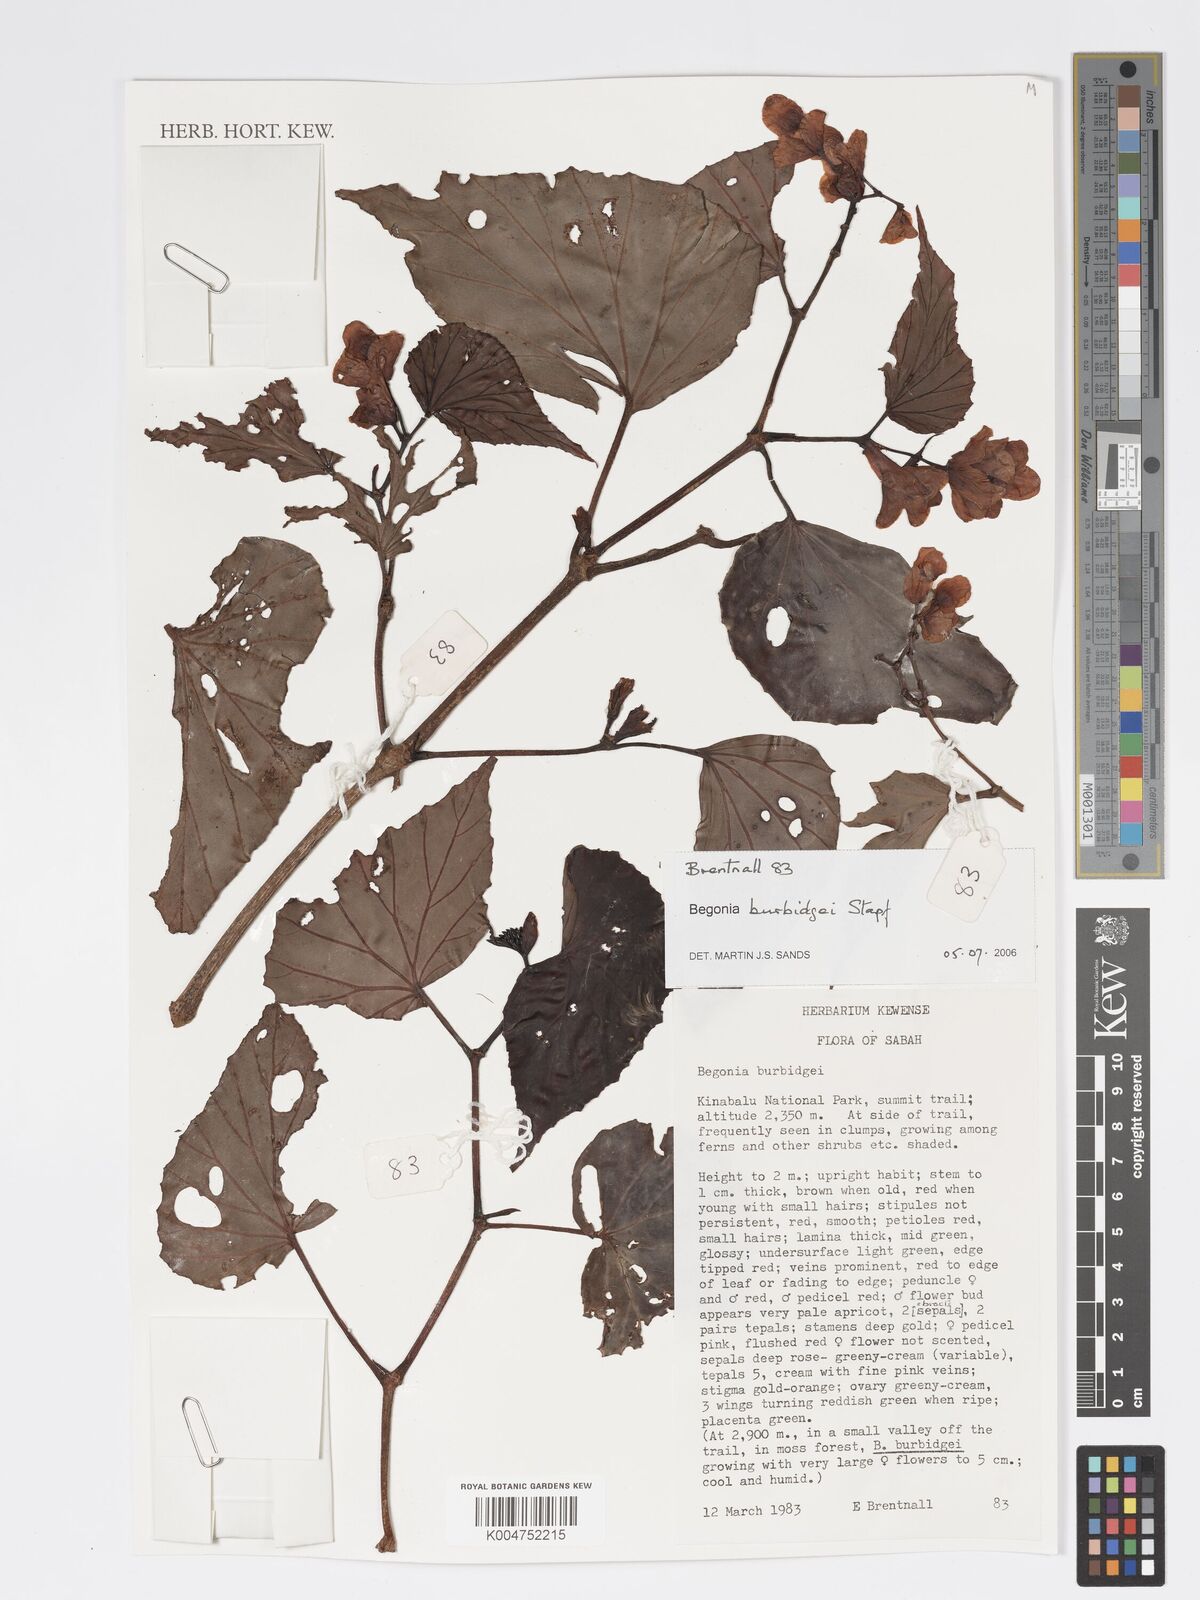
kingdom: Plantae
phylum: Tracheophyta
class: Magnoliopsida
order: Cucurbitales
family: Begoniaceae
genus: Begonia
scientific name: Begonia burbidgei
